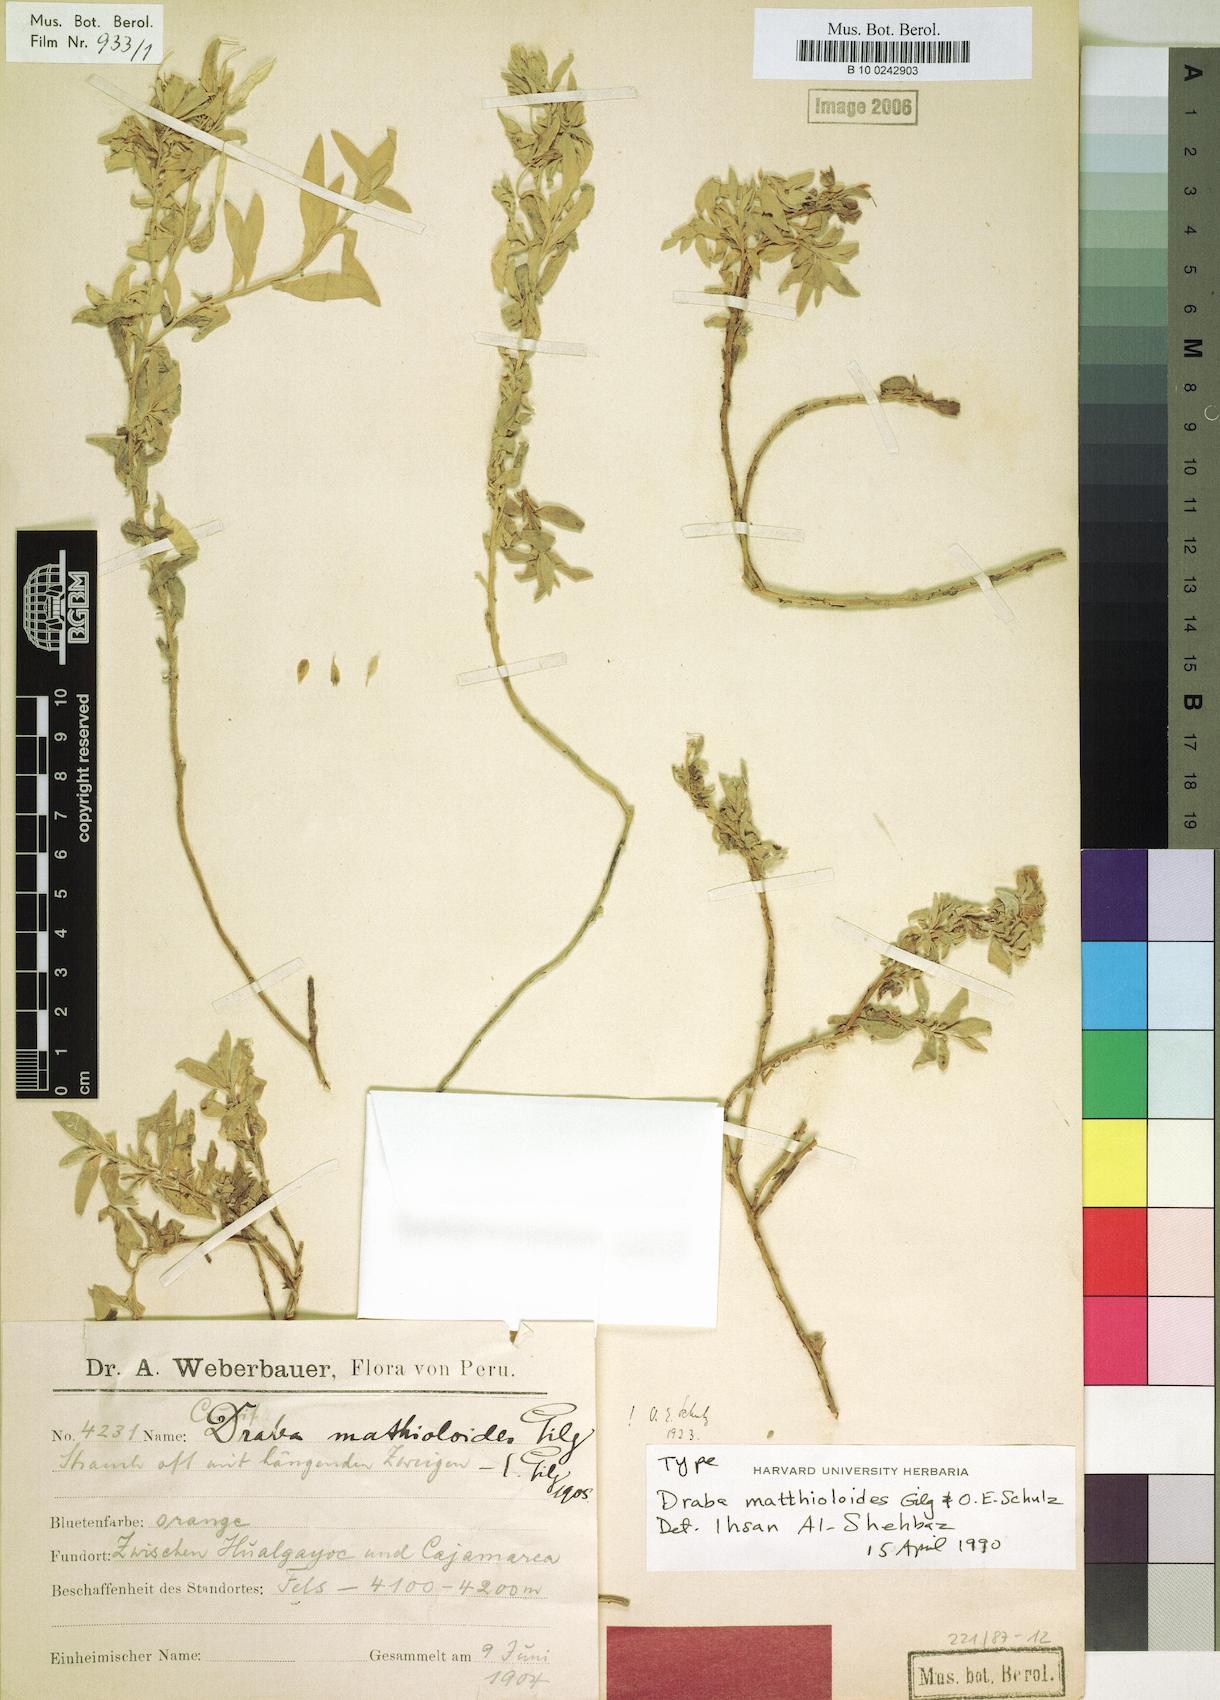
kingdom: Plantae
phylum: Tracheophyta
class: Magnoliopsida
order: Brassicales
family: Brassicaceae
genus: Draba
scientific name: Draba matthioloides
